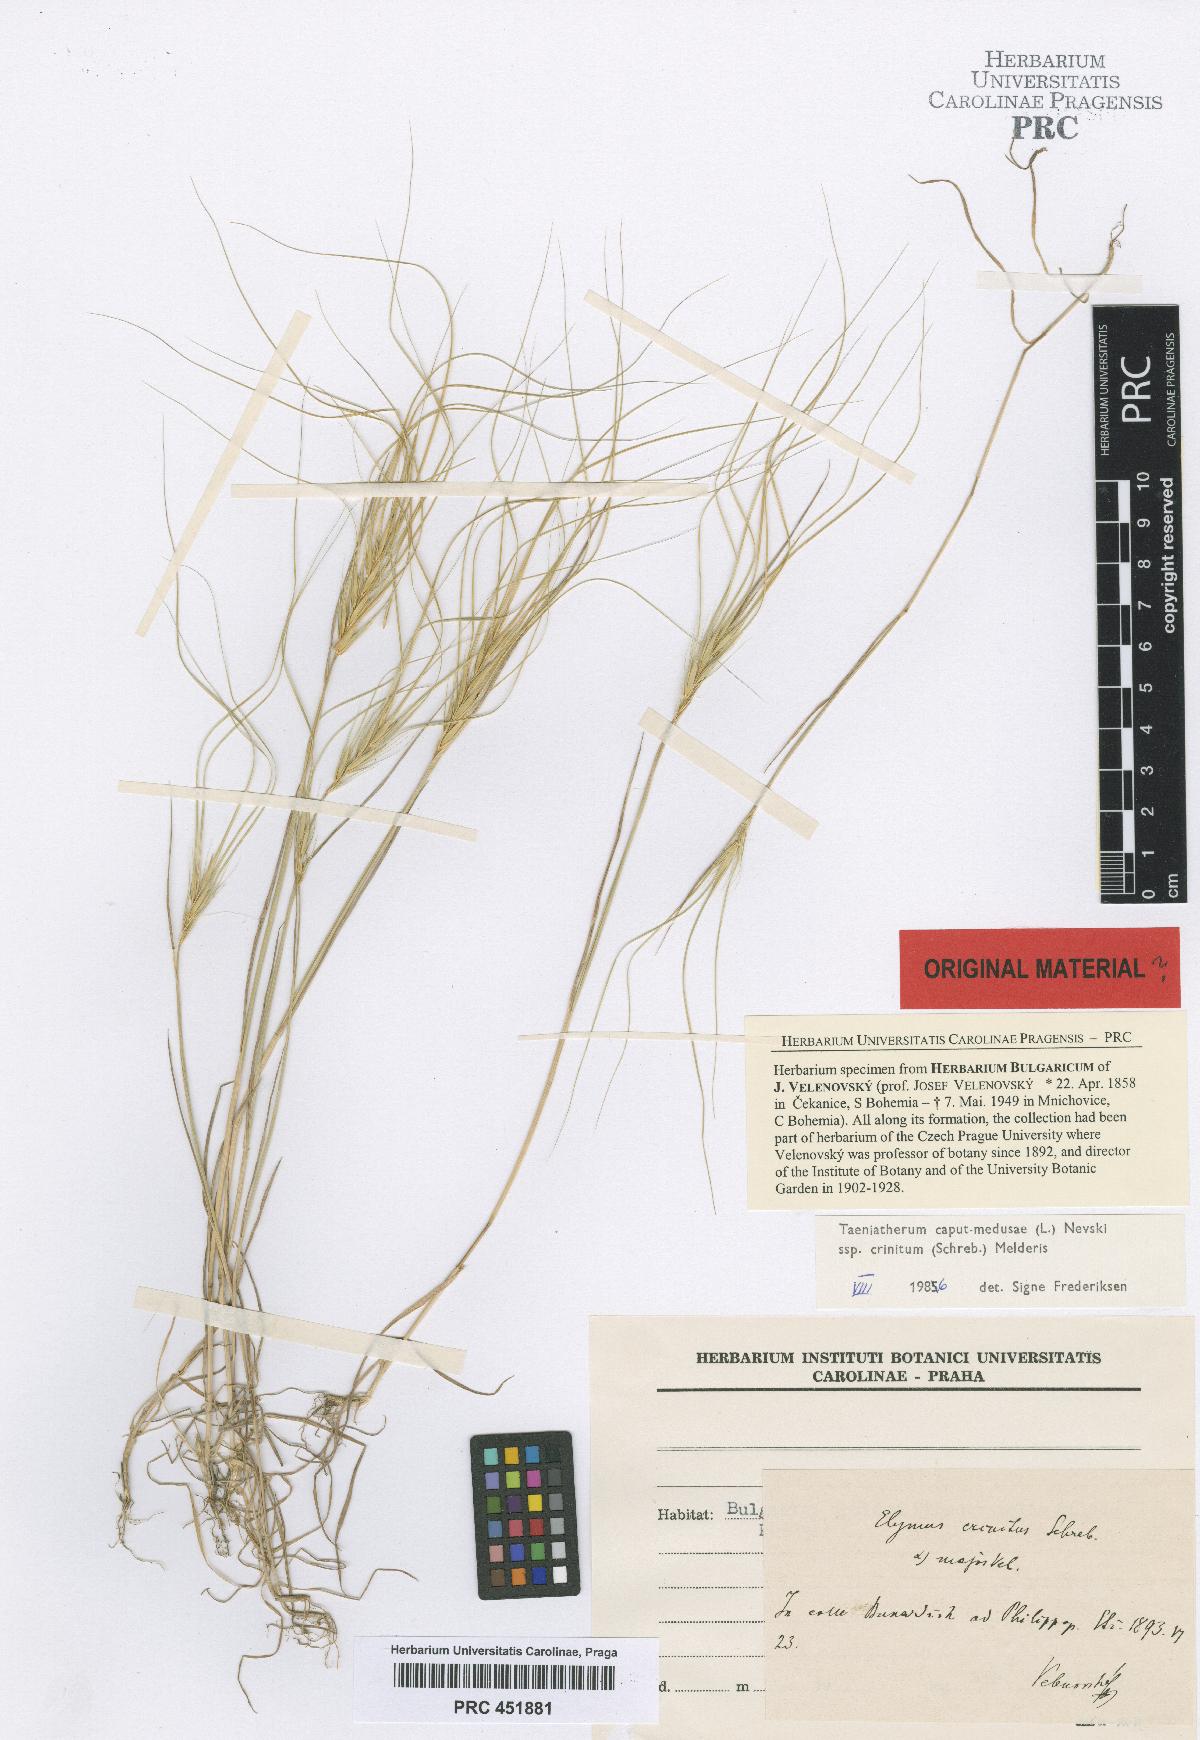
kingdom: Plantae
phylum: Tracheophyta
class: Liliopsida
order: Poales
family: Poaceae
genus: Taeniatherum
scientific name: Taeniatherum caput-medusae
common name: Medusahead
